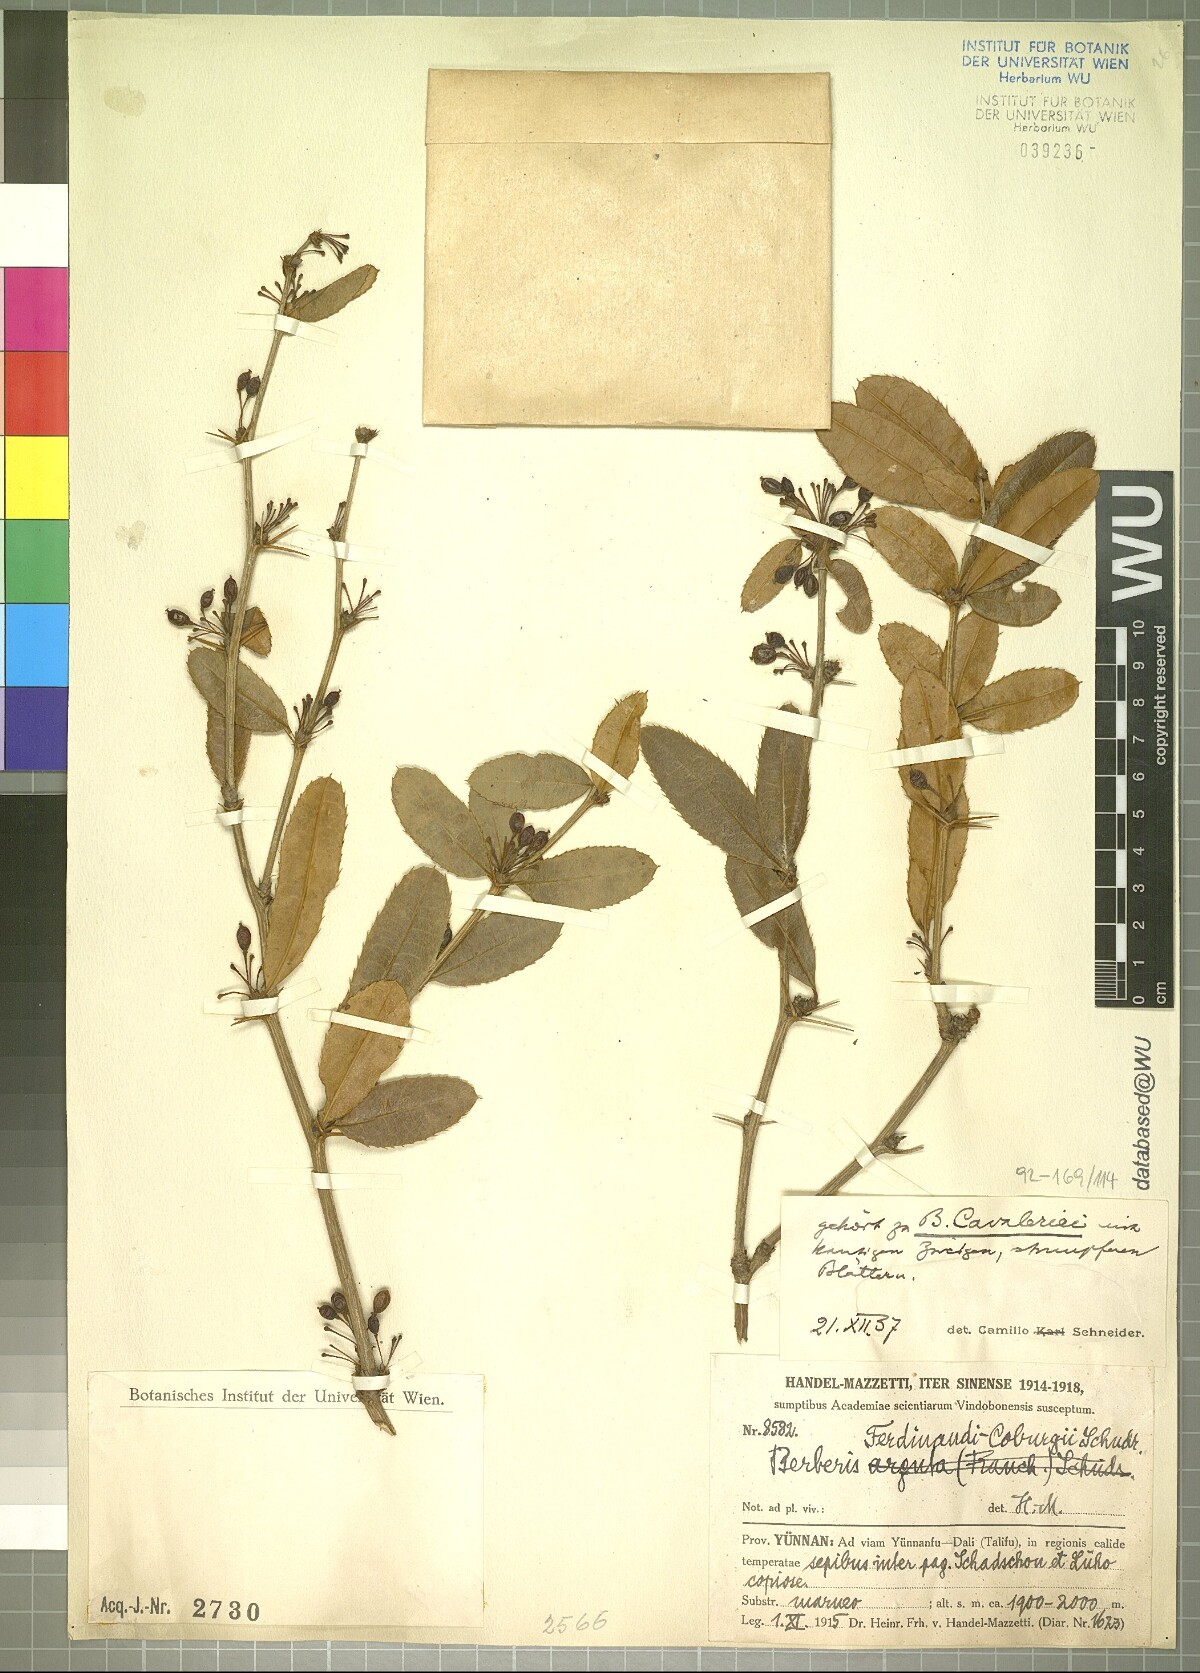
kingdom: Plantae
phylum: Tracheophyta
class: Magnoliopsida
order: Ranunculales
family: Berberidaceae
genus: Berberis
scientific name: Berberis cavaleriei
